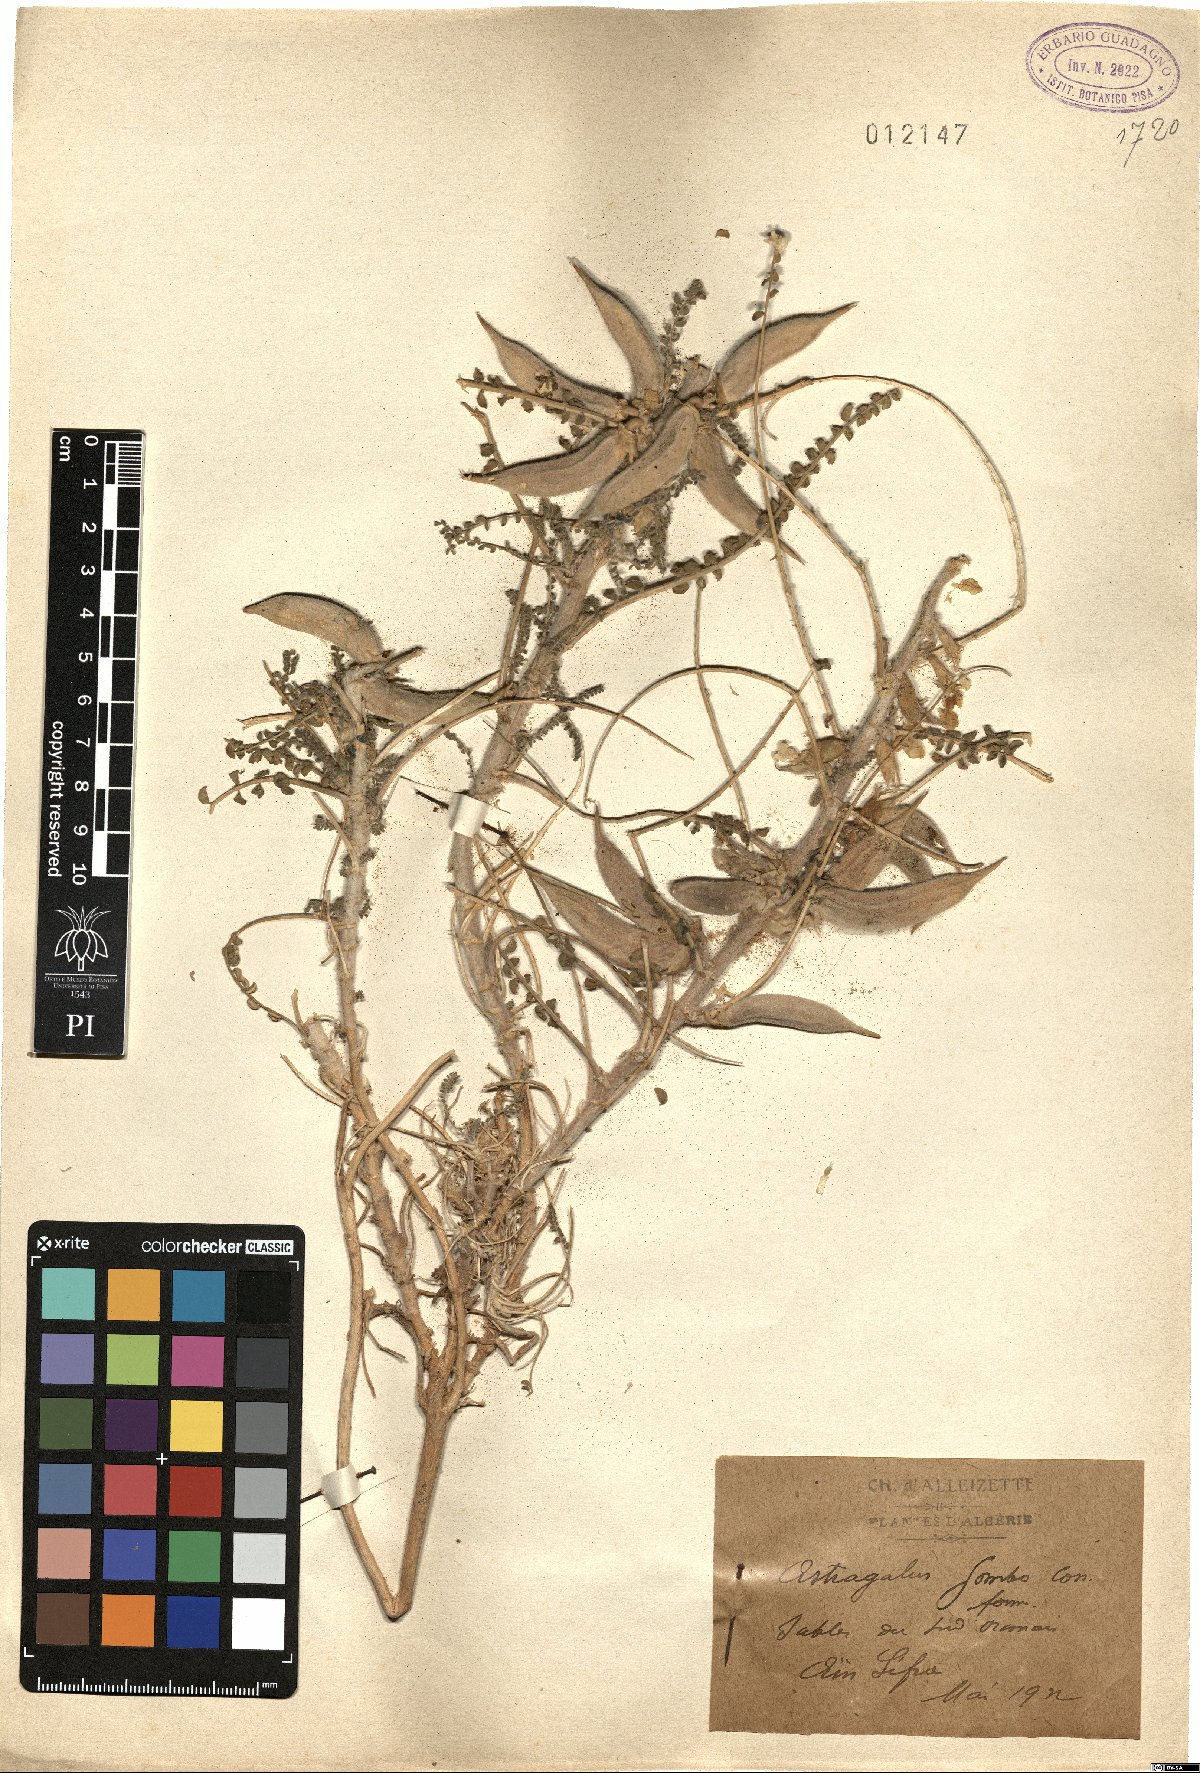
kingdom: Plantae
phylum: Tracheophyta
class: Magnoliopsida
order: Fabales
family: Fabaceae
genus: Astragalus
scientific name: Astragalus gombo
